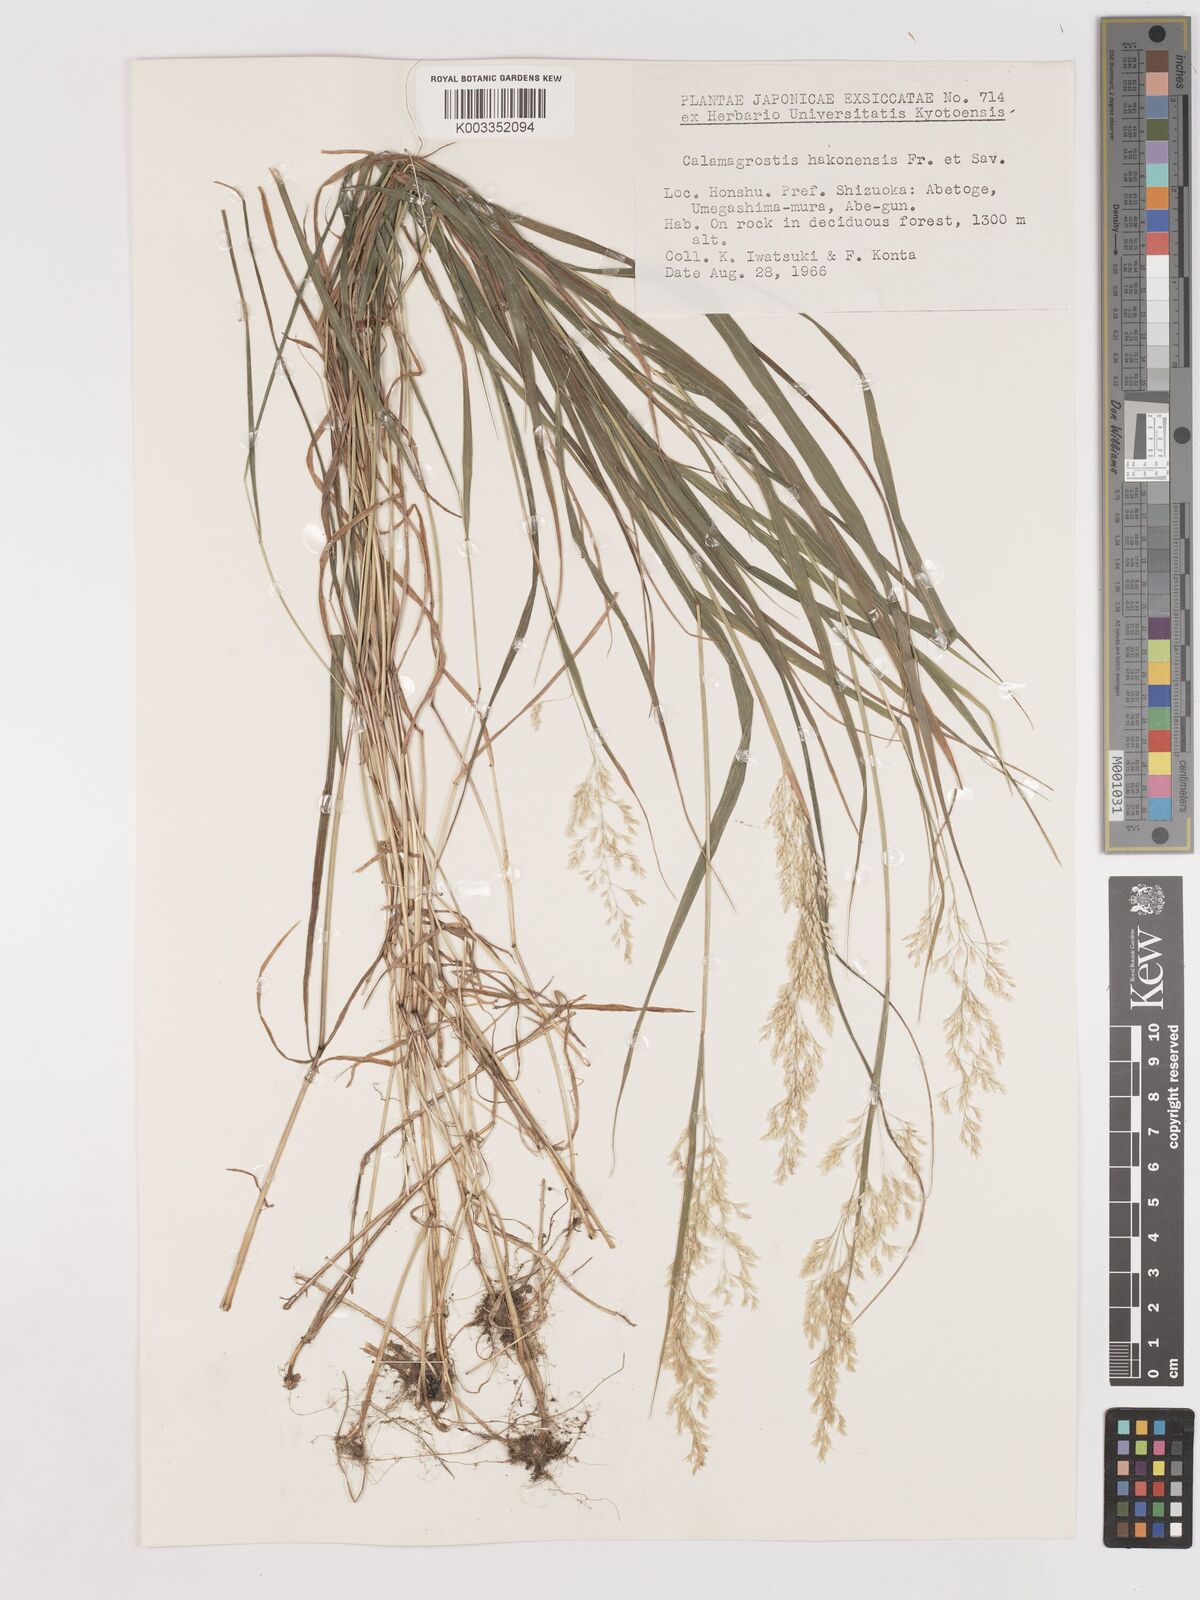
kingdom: Plantae
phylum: Tracheophyta
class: Liliopsida
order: Poales
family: Poaceae
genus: Calamagrostis
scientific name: Calamagrostis hakonensis
